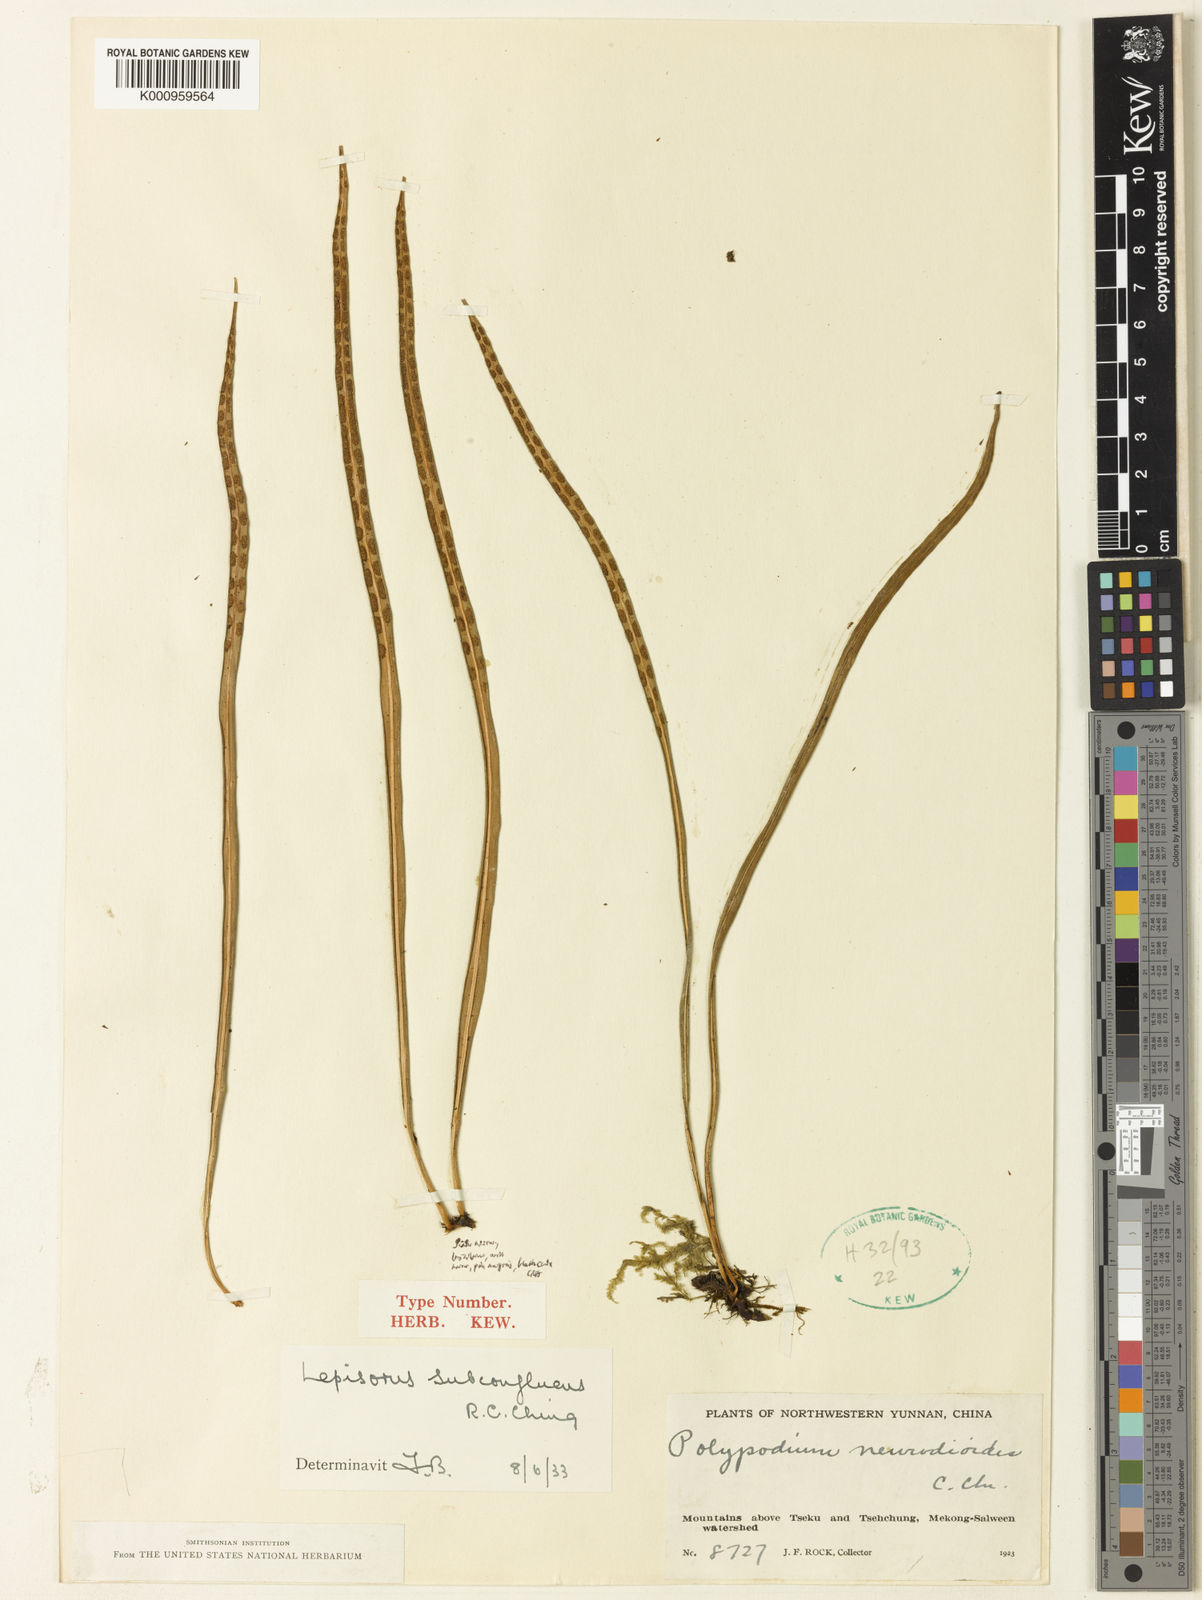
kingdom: Plantae
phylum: Tracheophyta
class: Polypodiopsida
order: Polypodiales
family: Polypodiaceae
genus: Lepisorus
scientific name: Lepisorus eilophyllus
